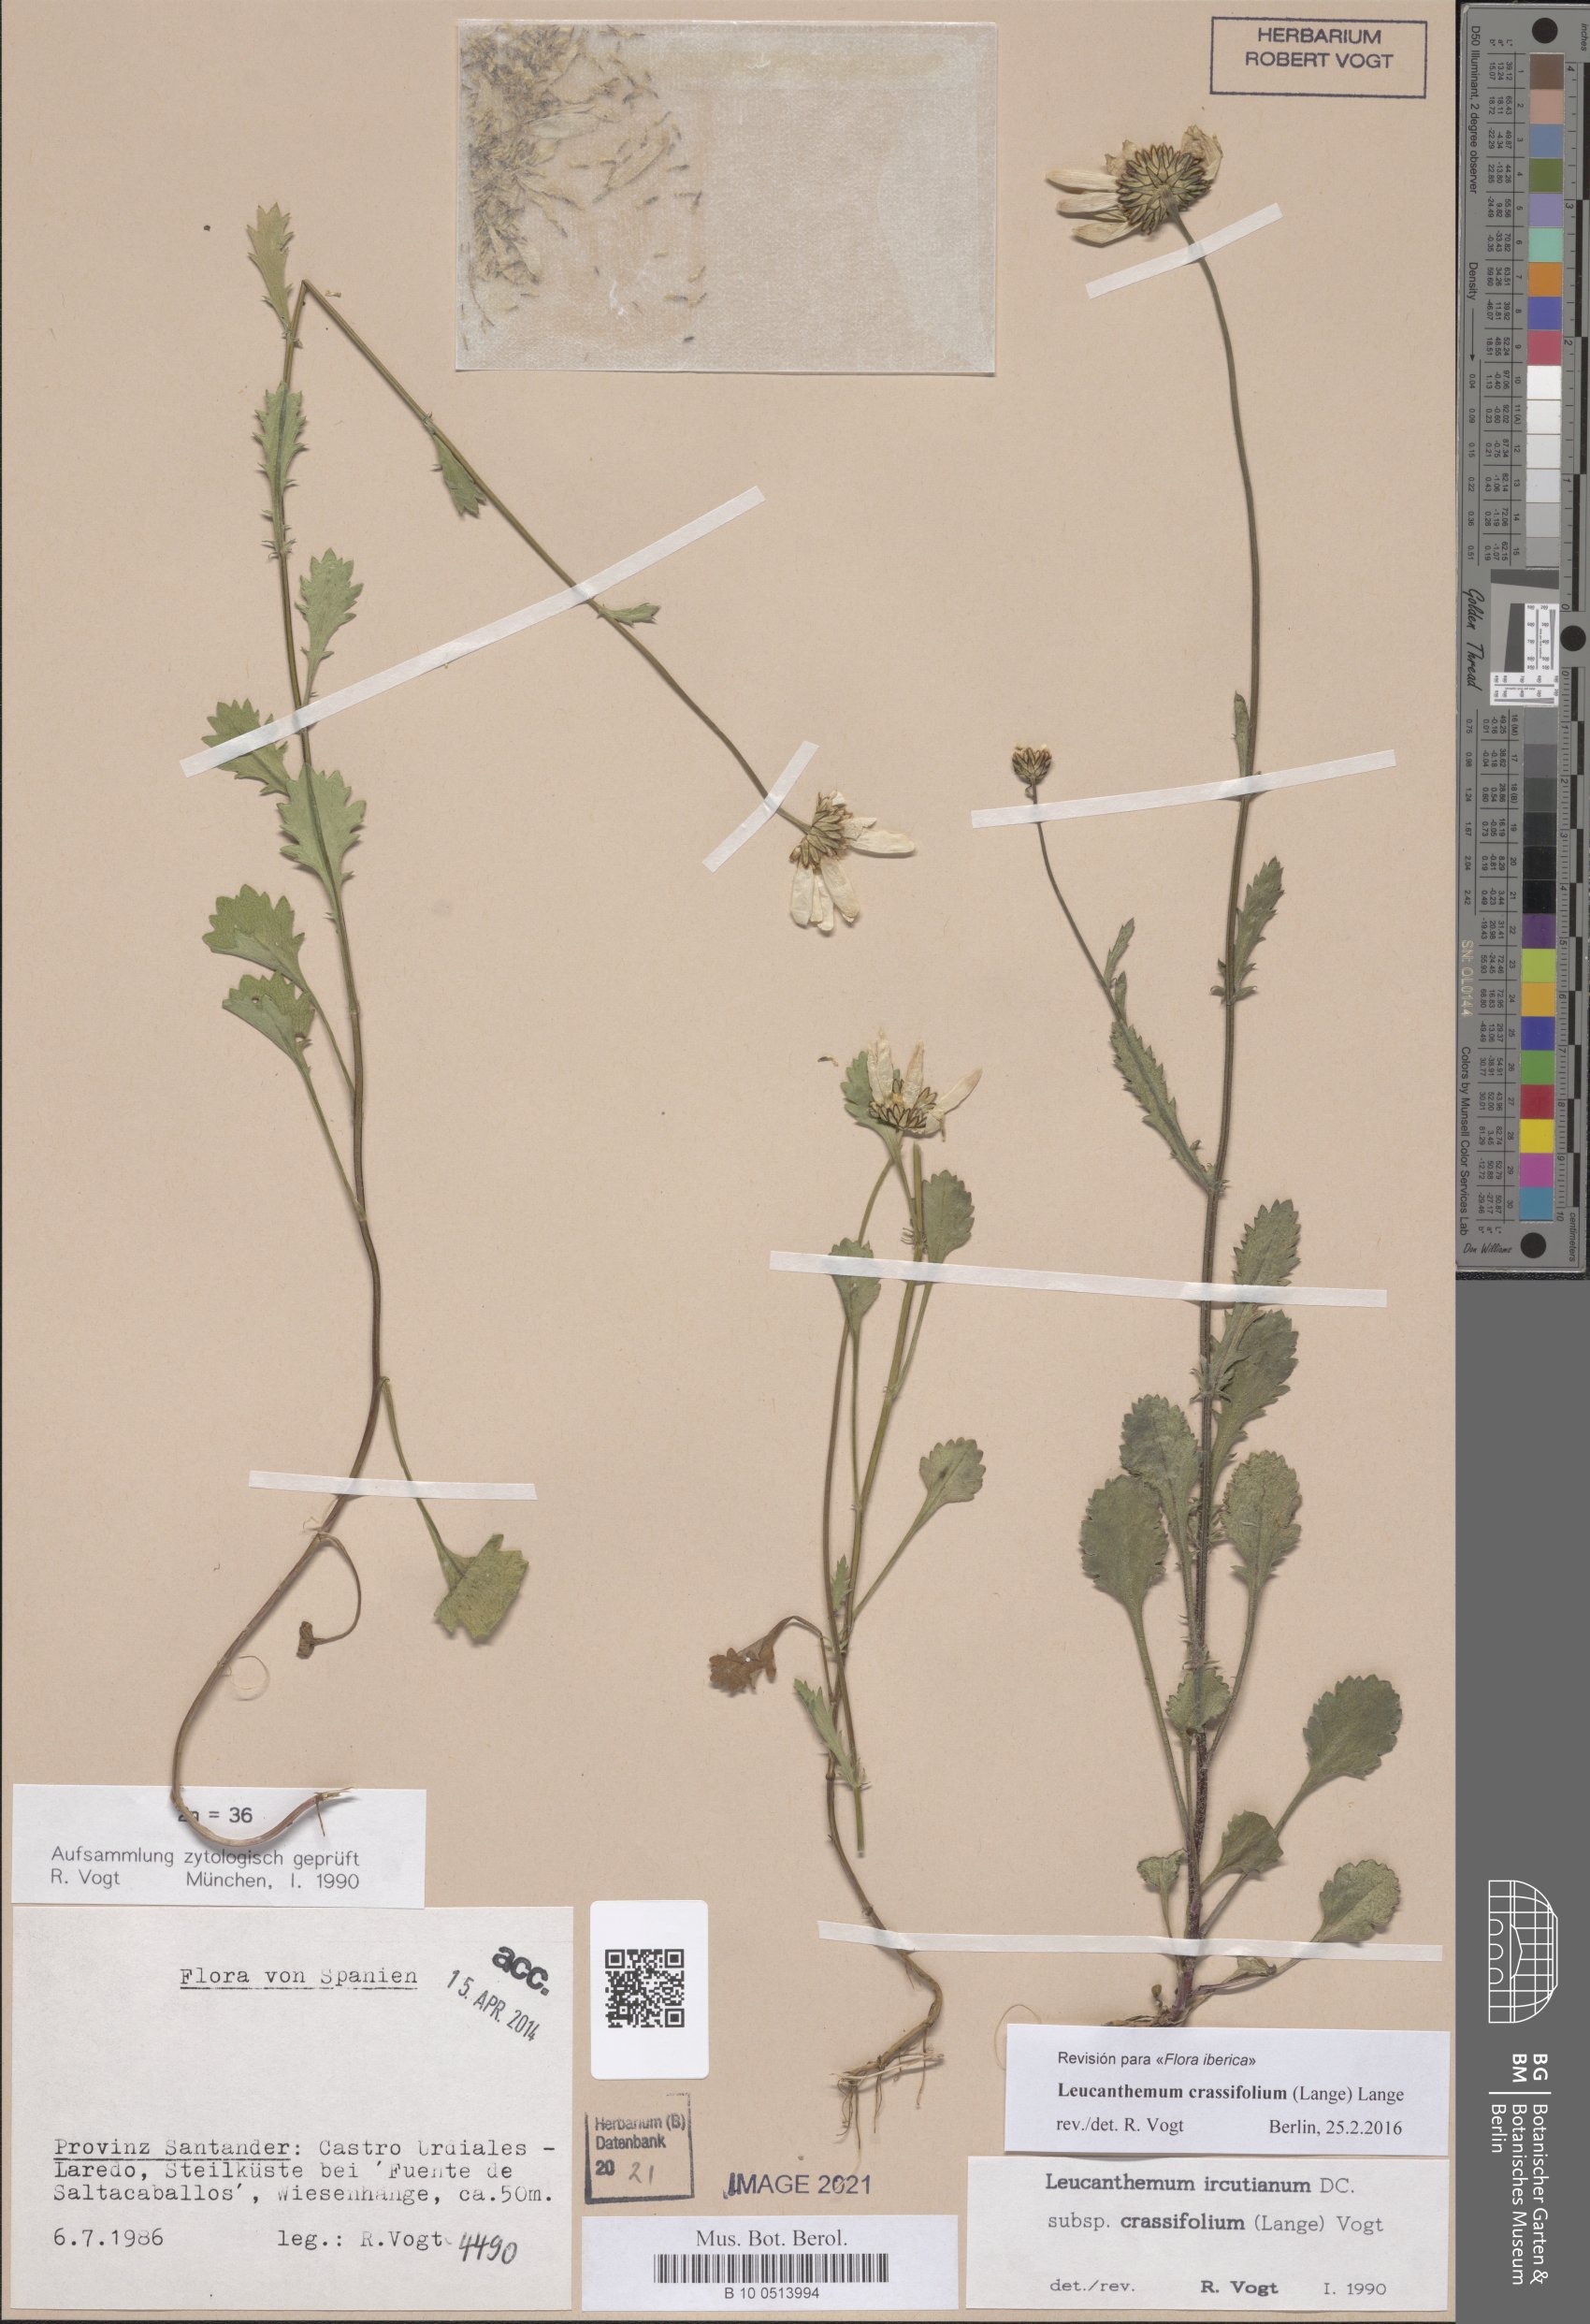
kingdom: Plantae
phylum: Tracheophyta
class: Magnoliopsida
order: Asterales
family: Asteraceae
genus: Leucanthemum
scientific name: Leucanthemum crassifolium
